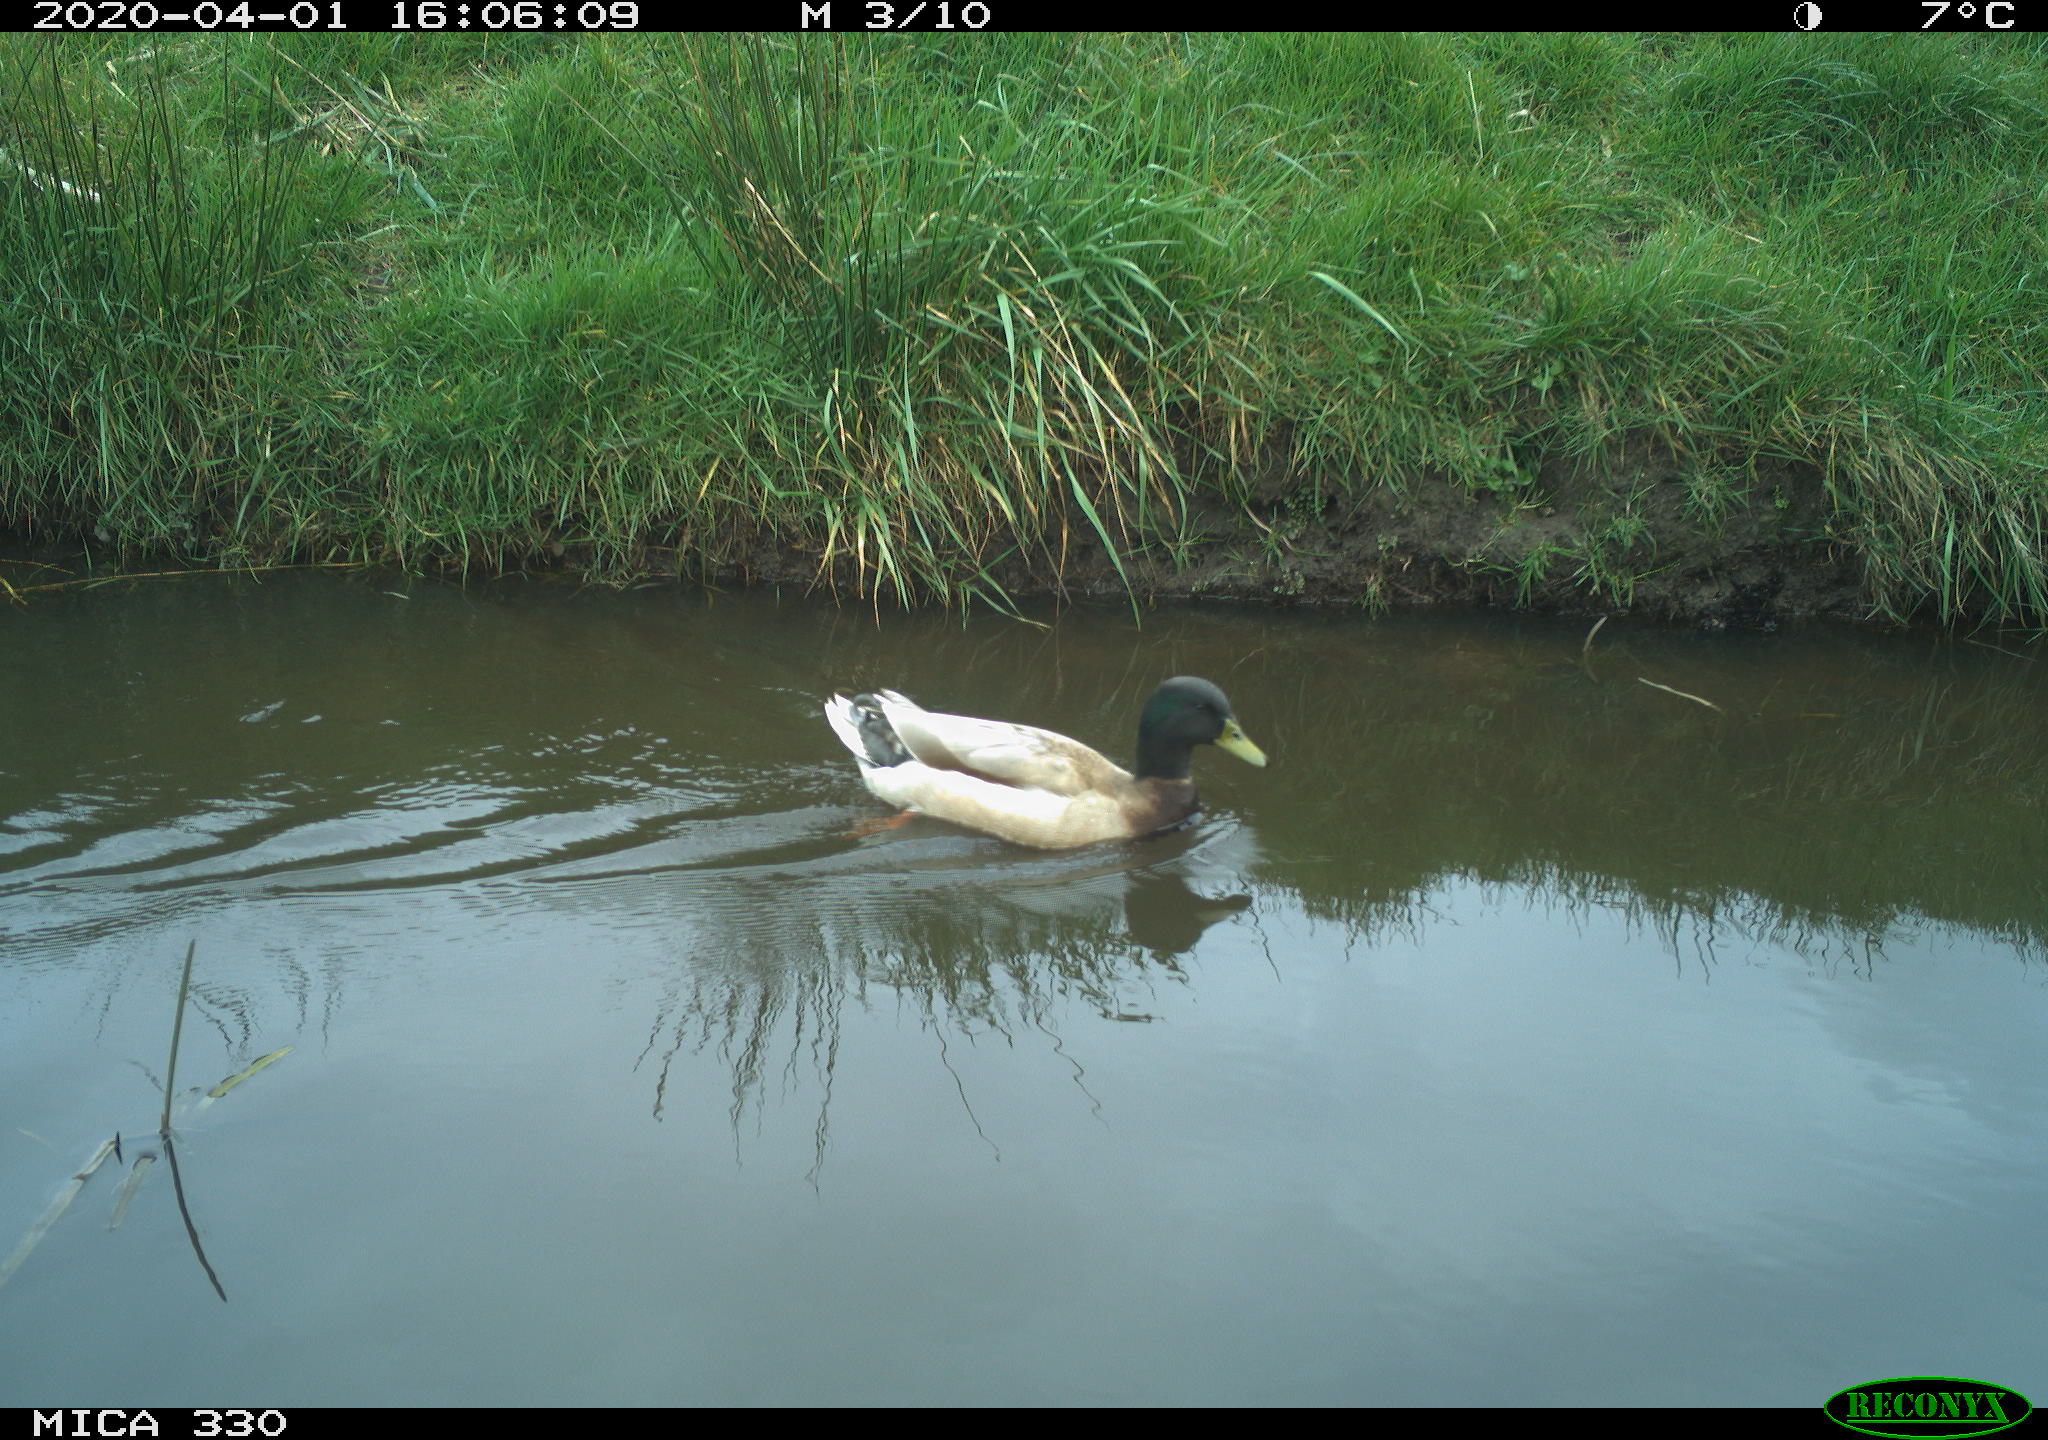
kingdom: Animalia
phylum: Chordata
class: Aves
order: Anseriformes
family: Anatidae
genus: Anas
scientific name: Anas platyrhynchos
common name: Mallard
